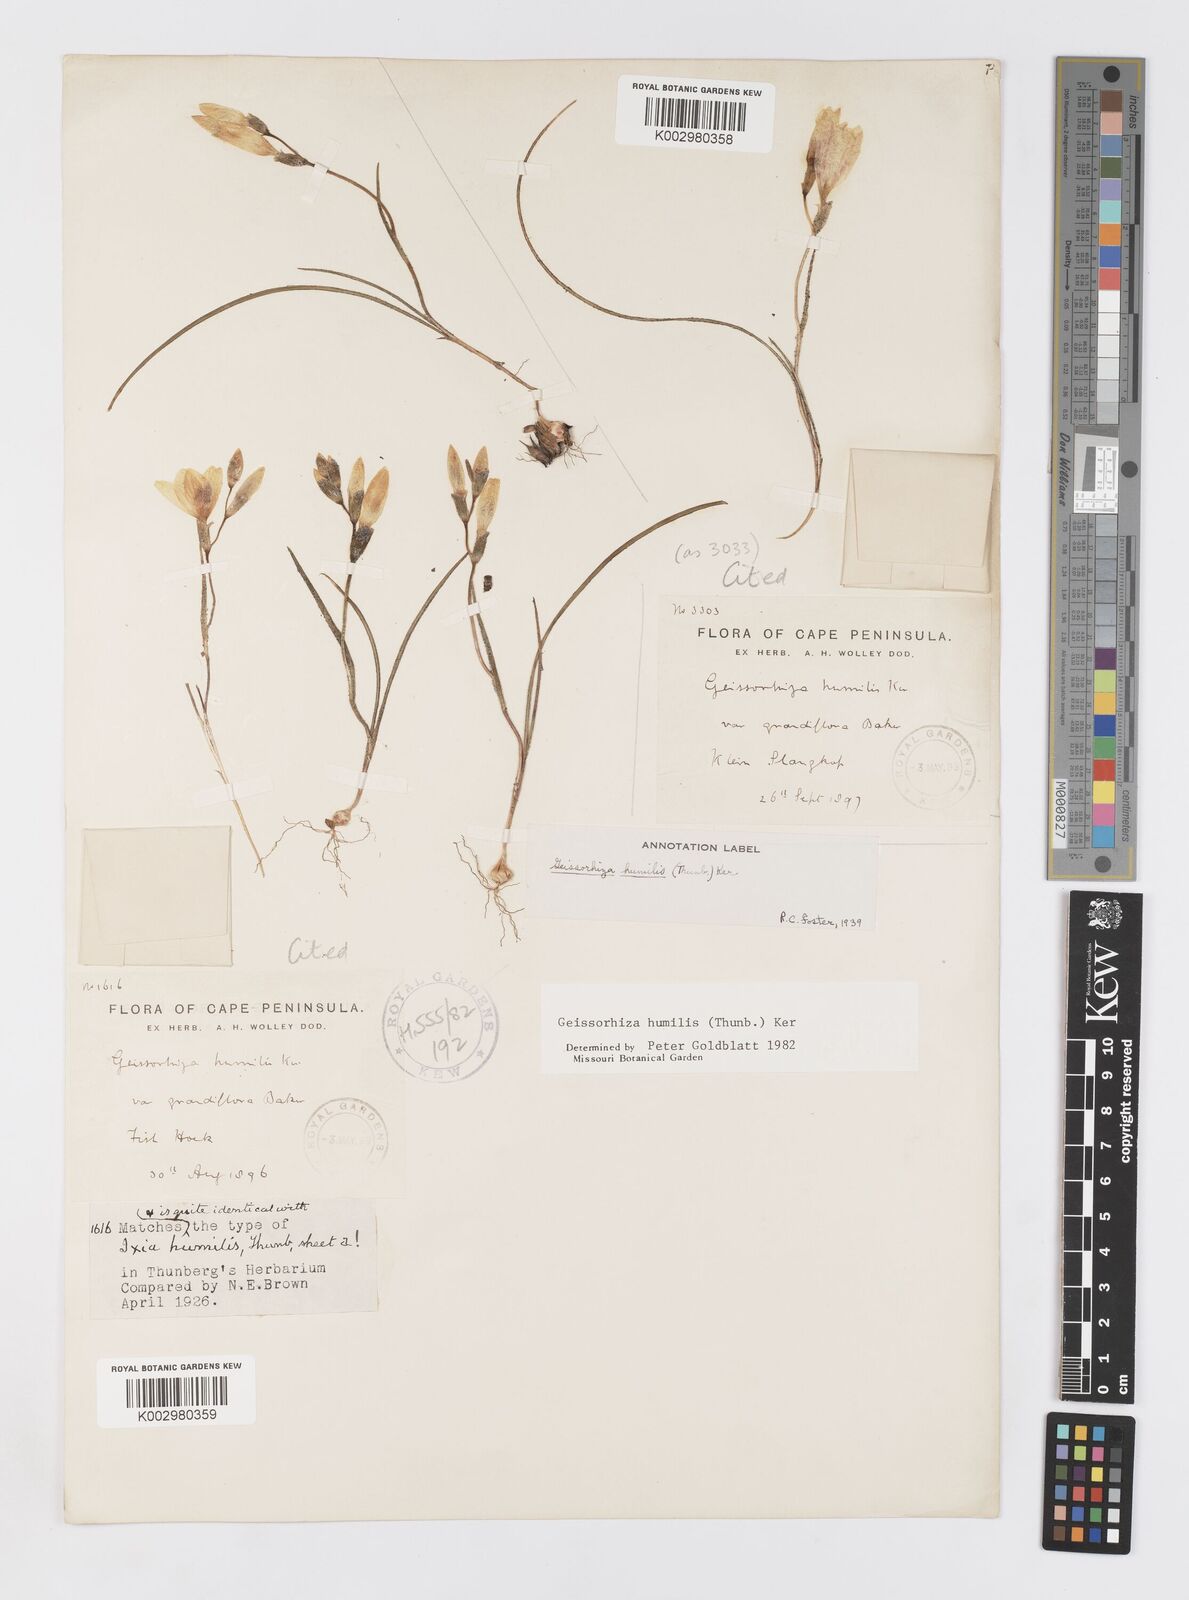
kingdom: Plantae
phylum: Tracheophyta
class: Liliopsida
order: Asparagales
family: Iridaceae
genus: Geissorhiza
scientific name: Geissorhiza humilis
